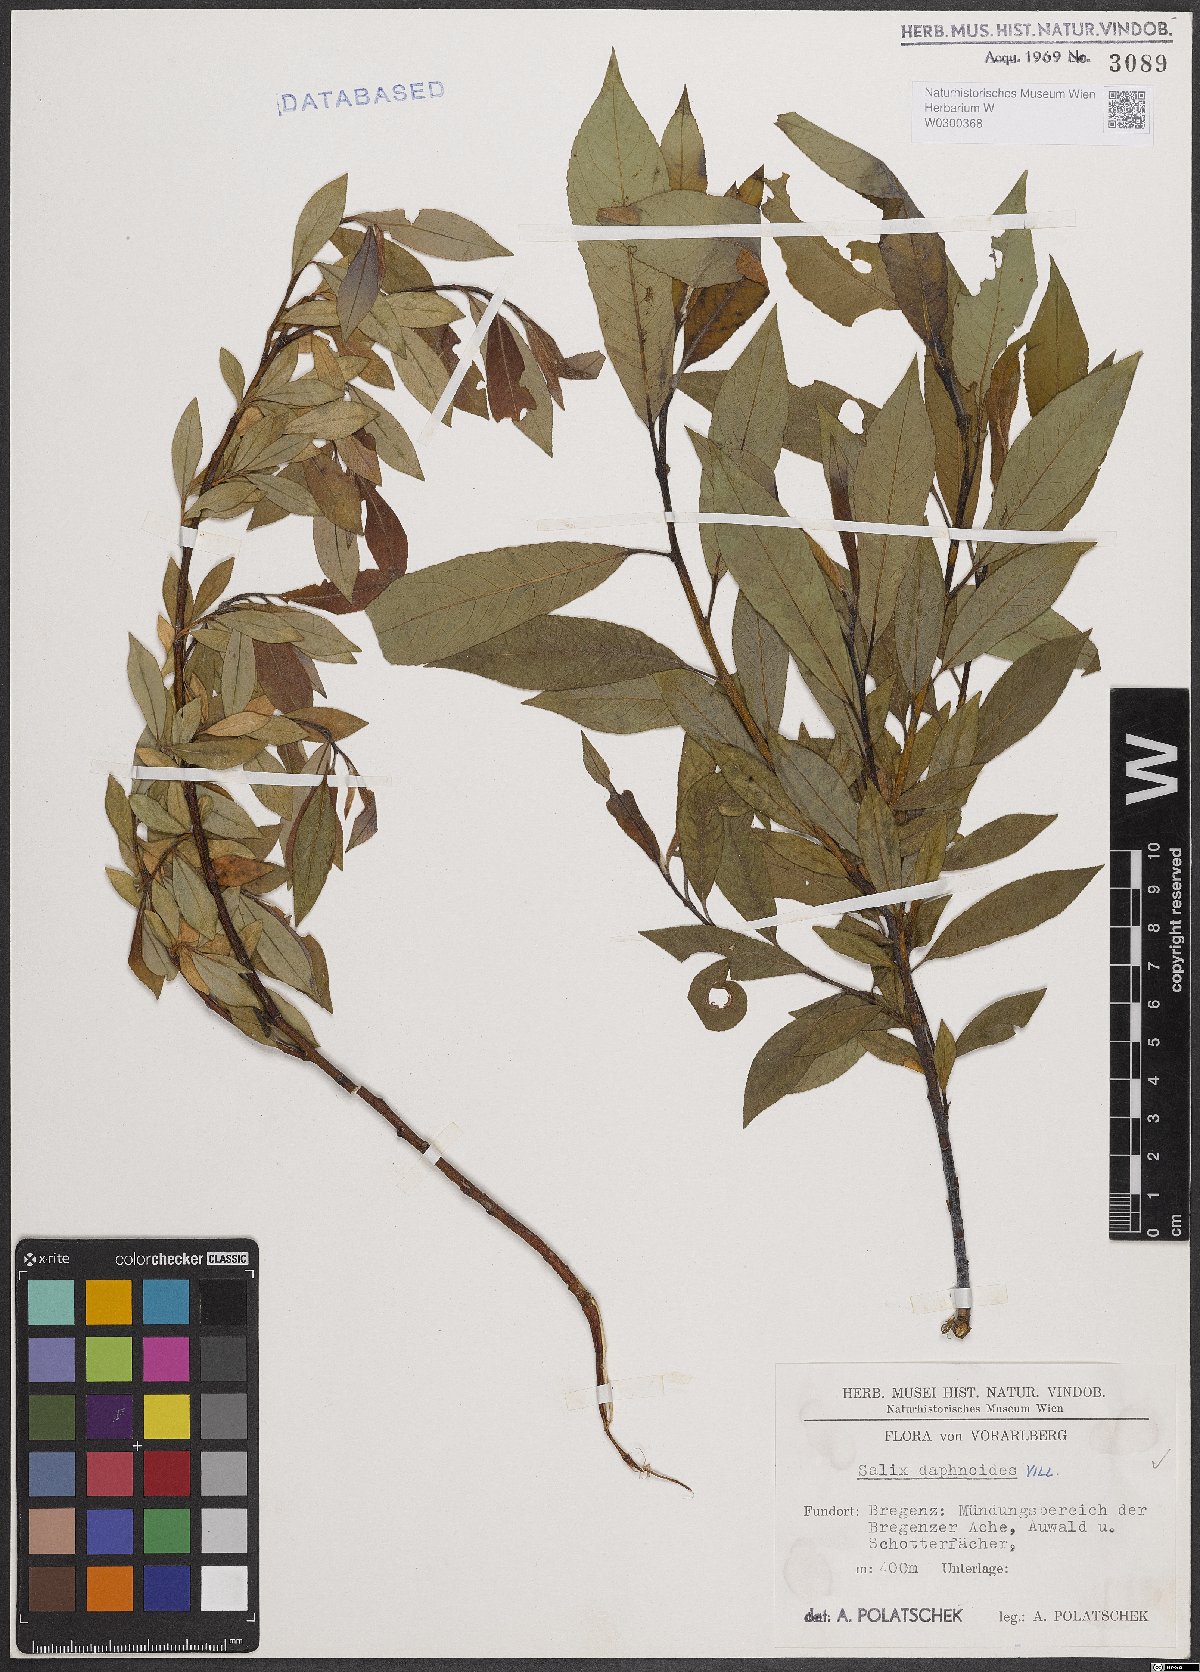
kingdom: Plantae
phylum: Tracheophyta
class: Magnoliopsida
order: Malpighiales
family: Salicaceae
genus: Salix
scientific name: Salix daphnoides
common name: European violet-willow
